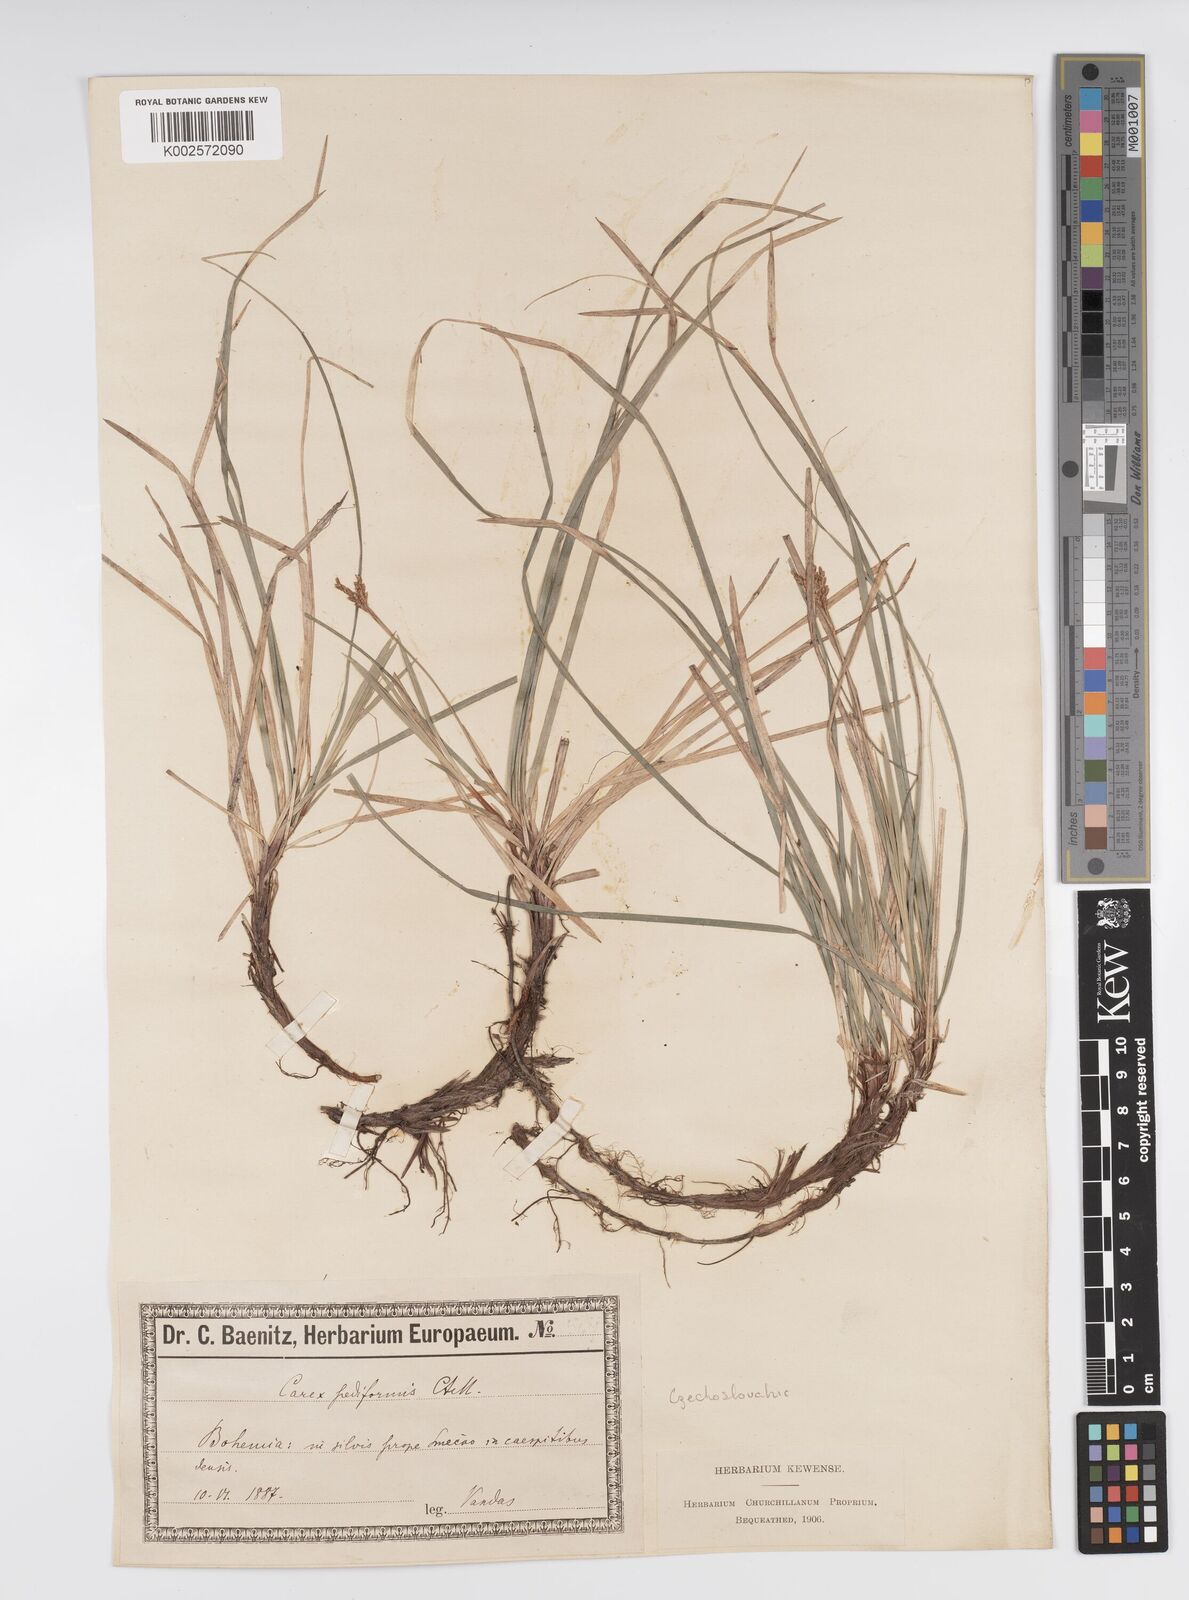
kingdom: Plantae
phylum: Tracheophyta
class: Liliopsida
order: Poales
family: Cyperaceae
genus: Carex
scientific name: Carex pediformis
